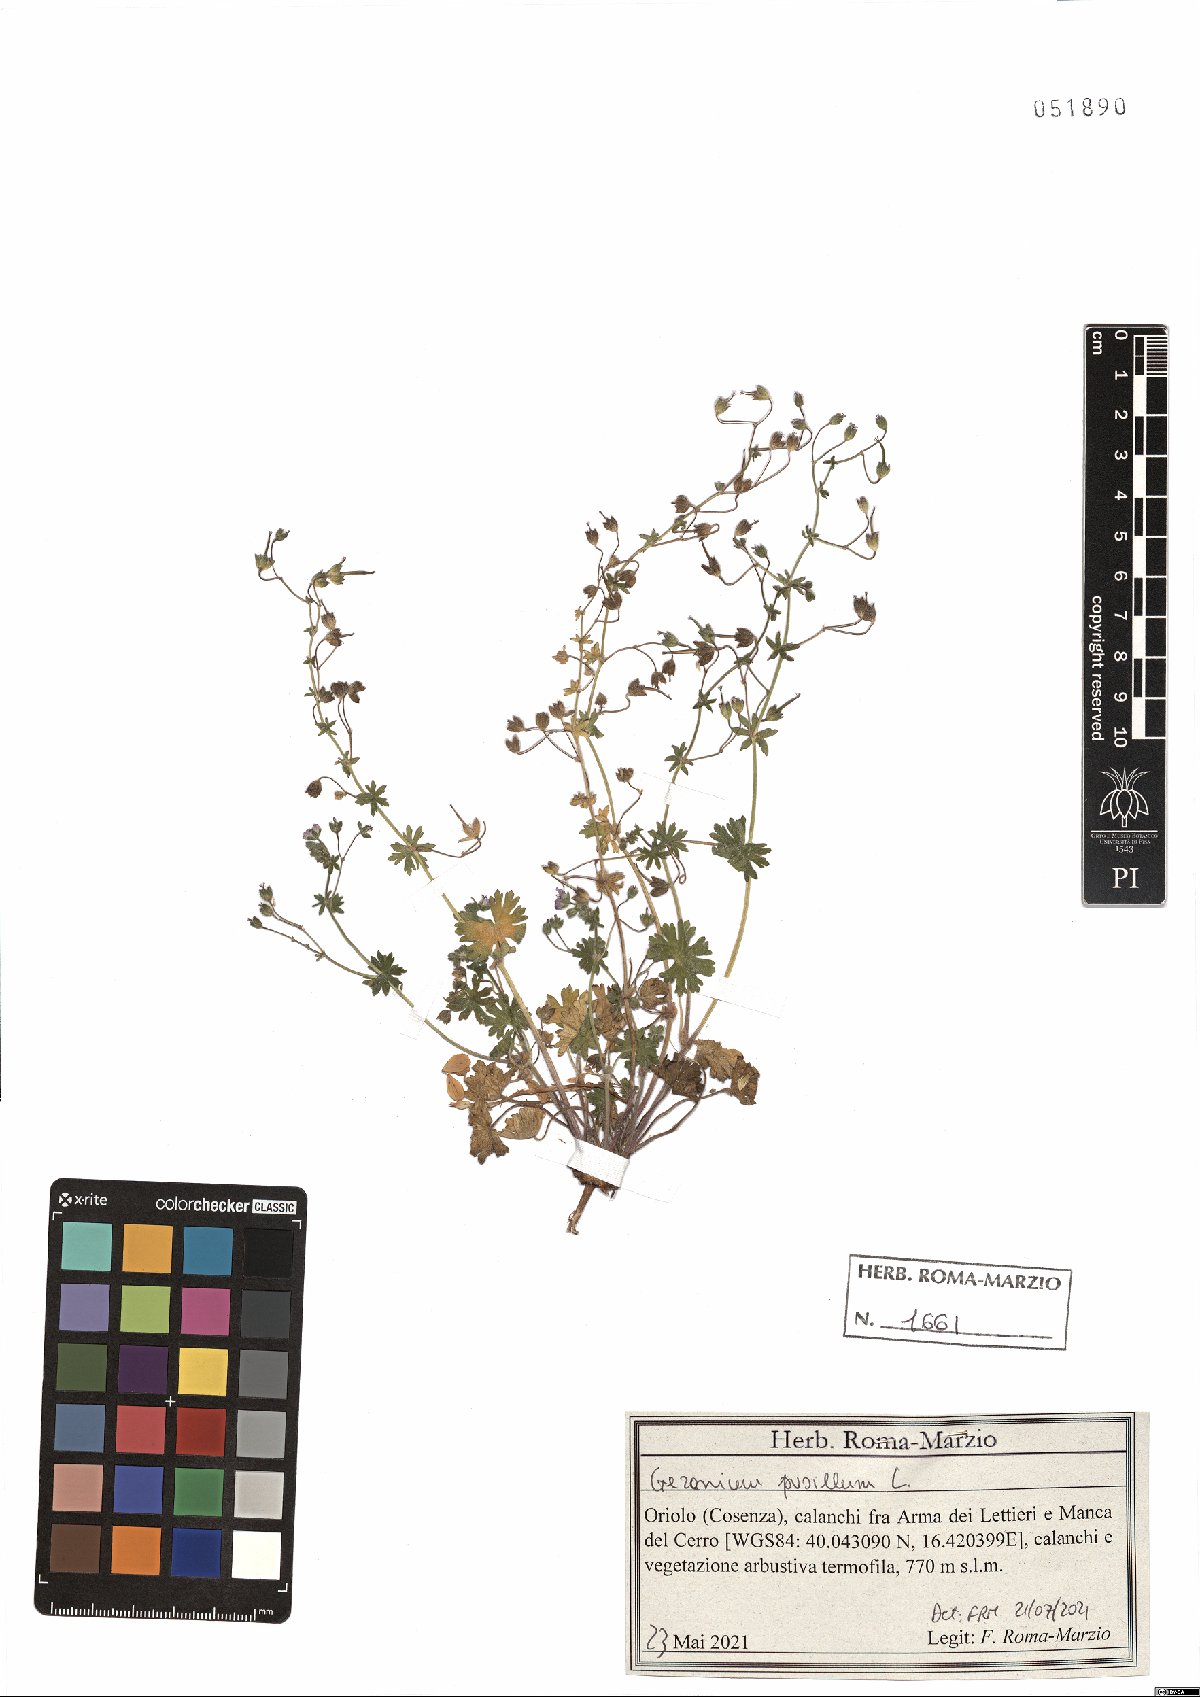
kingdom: Plantae
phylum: Tracheophyta
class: Magnoliopsida
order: Geraniales
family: Geraniaceae
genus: Geranium
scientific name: Geranium pusillum
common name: Small geranium
